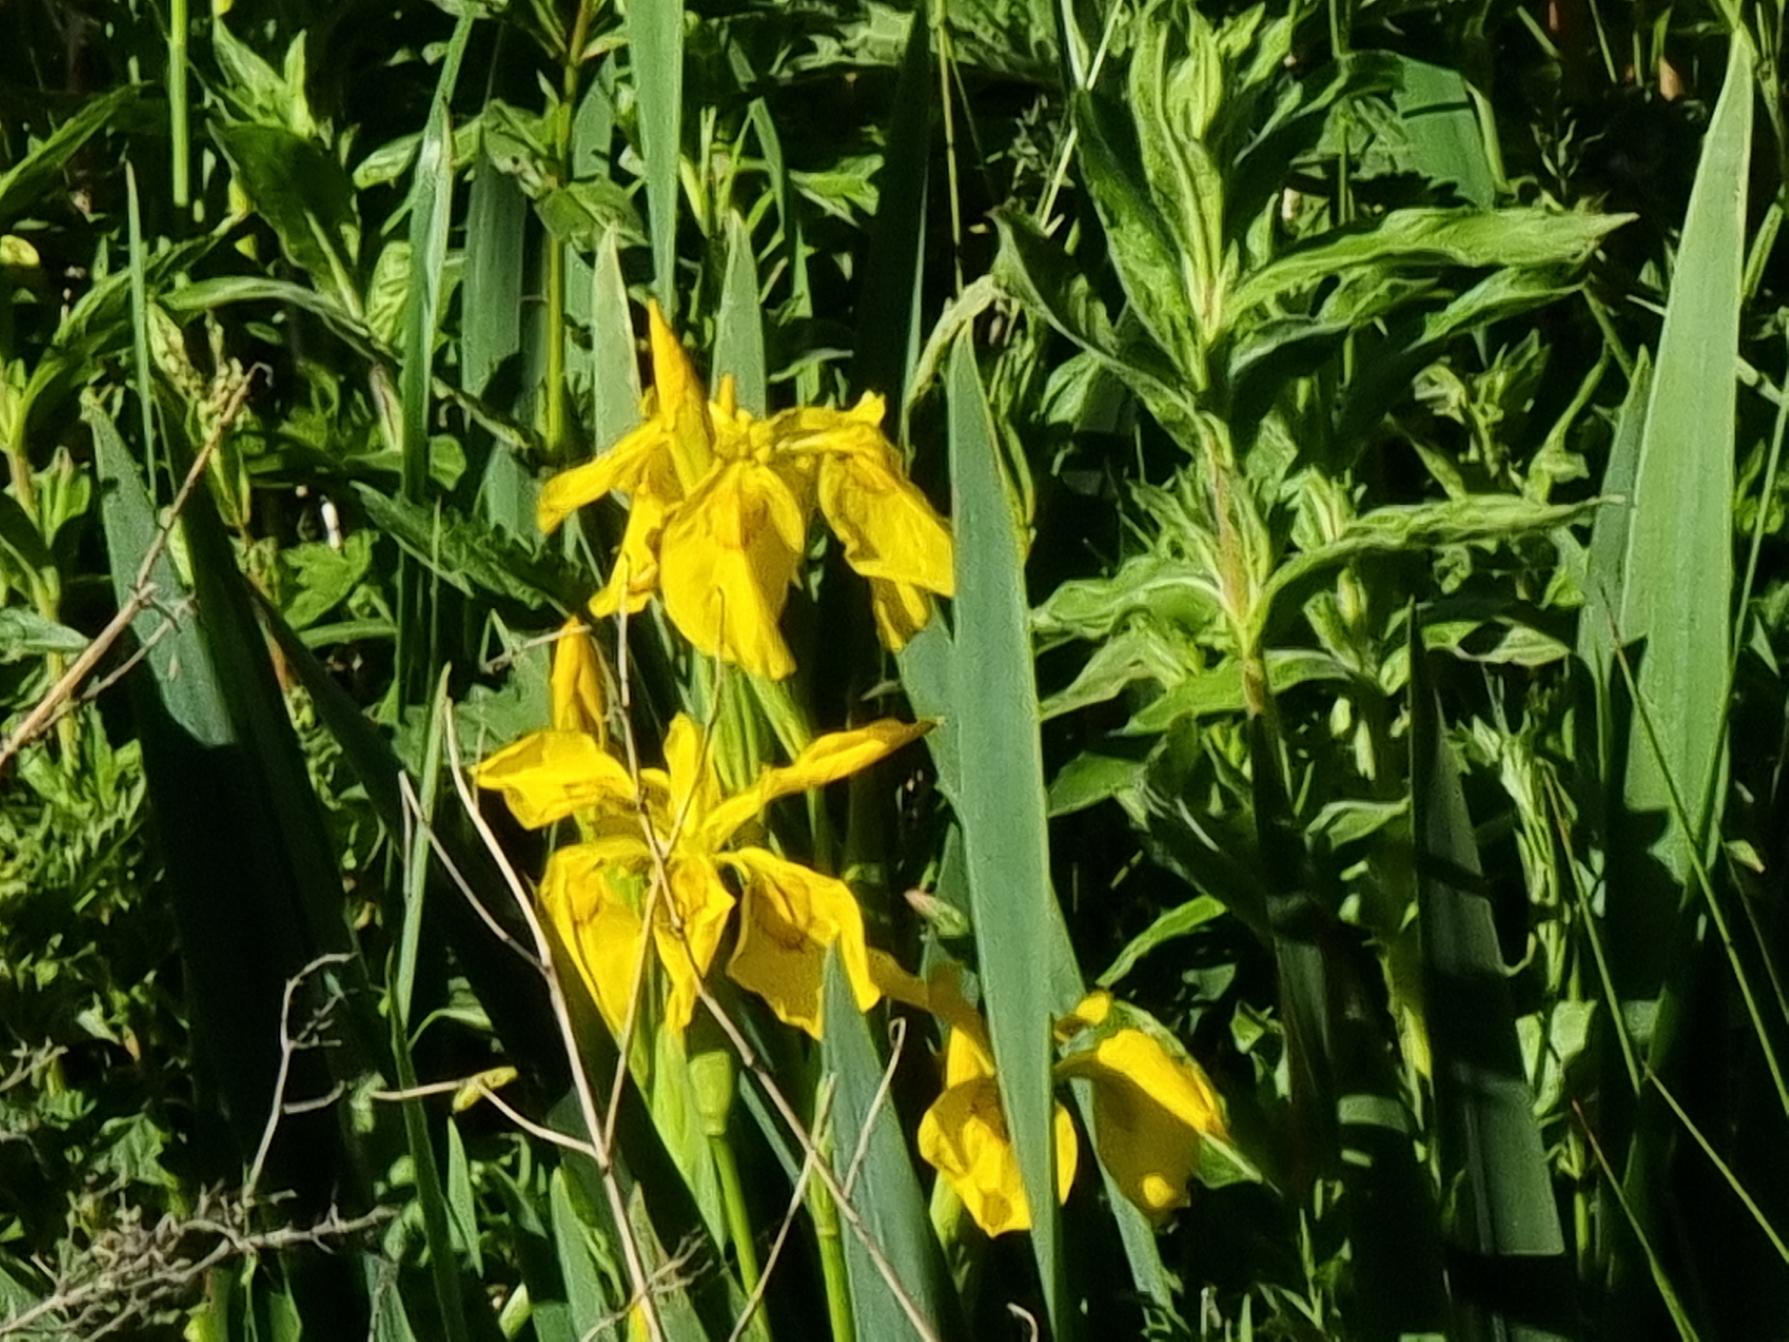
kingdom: Plantae
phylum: Tracheophyta
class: Liliopsida
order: Asparagales
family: Iridaceae
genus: Iris
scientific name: Iris pseudacorus
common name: Gul iris
